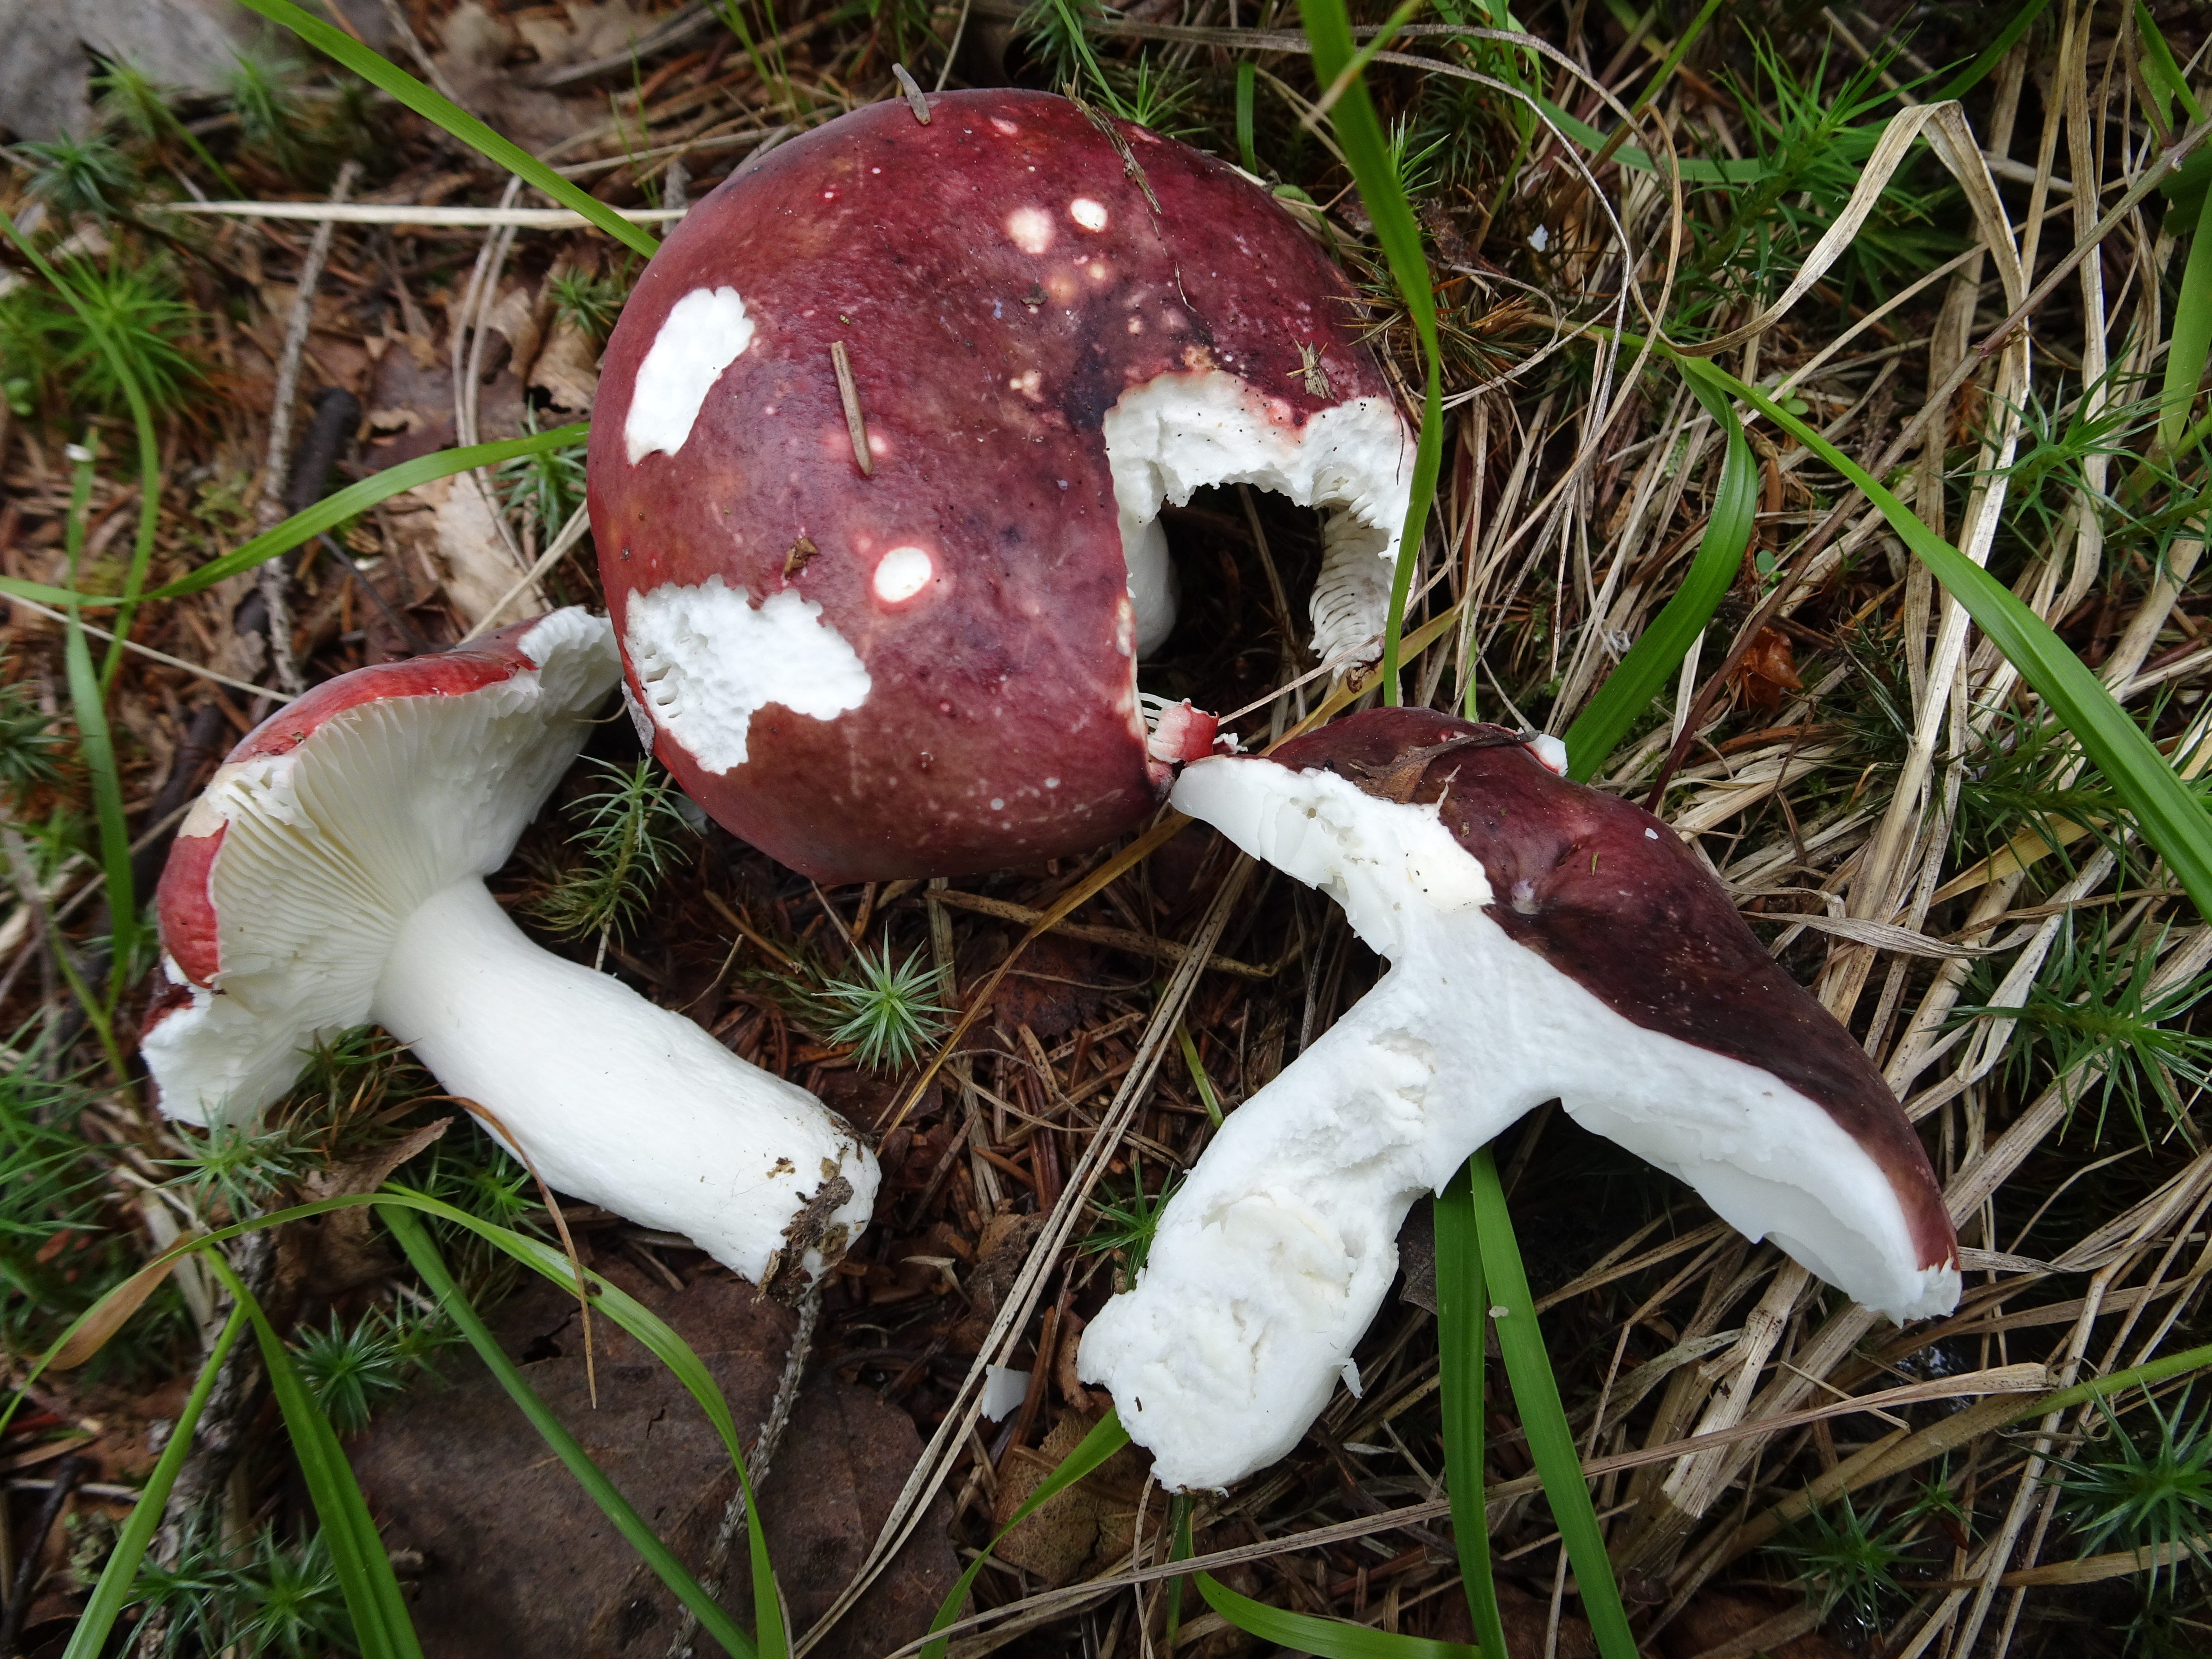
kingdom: Fungi
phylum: Basidiomycota
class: Agaricomycetes
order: Russulales
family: Russulaceae
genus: Russula
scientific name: Russula
